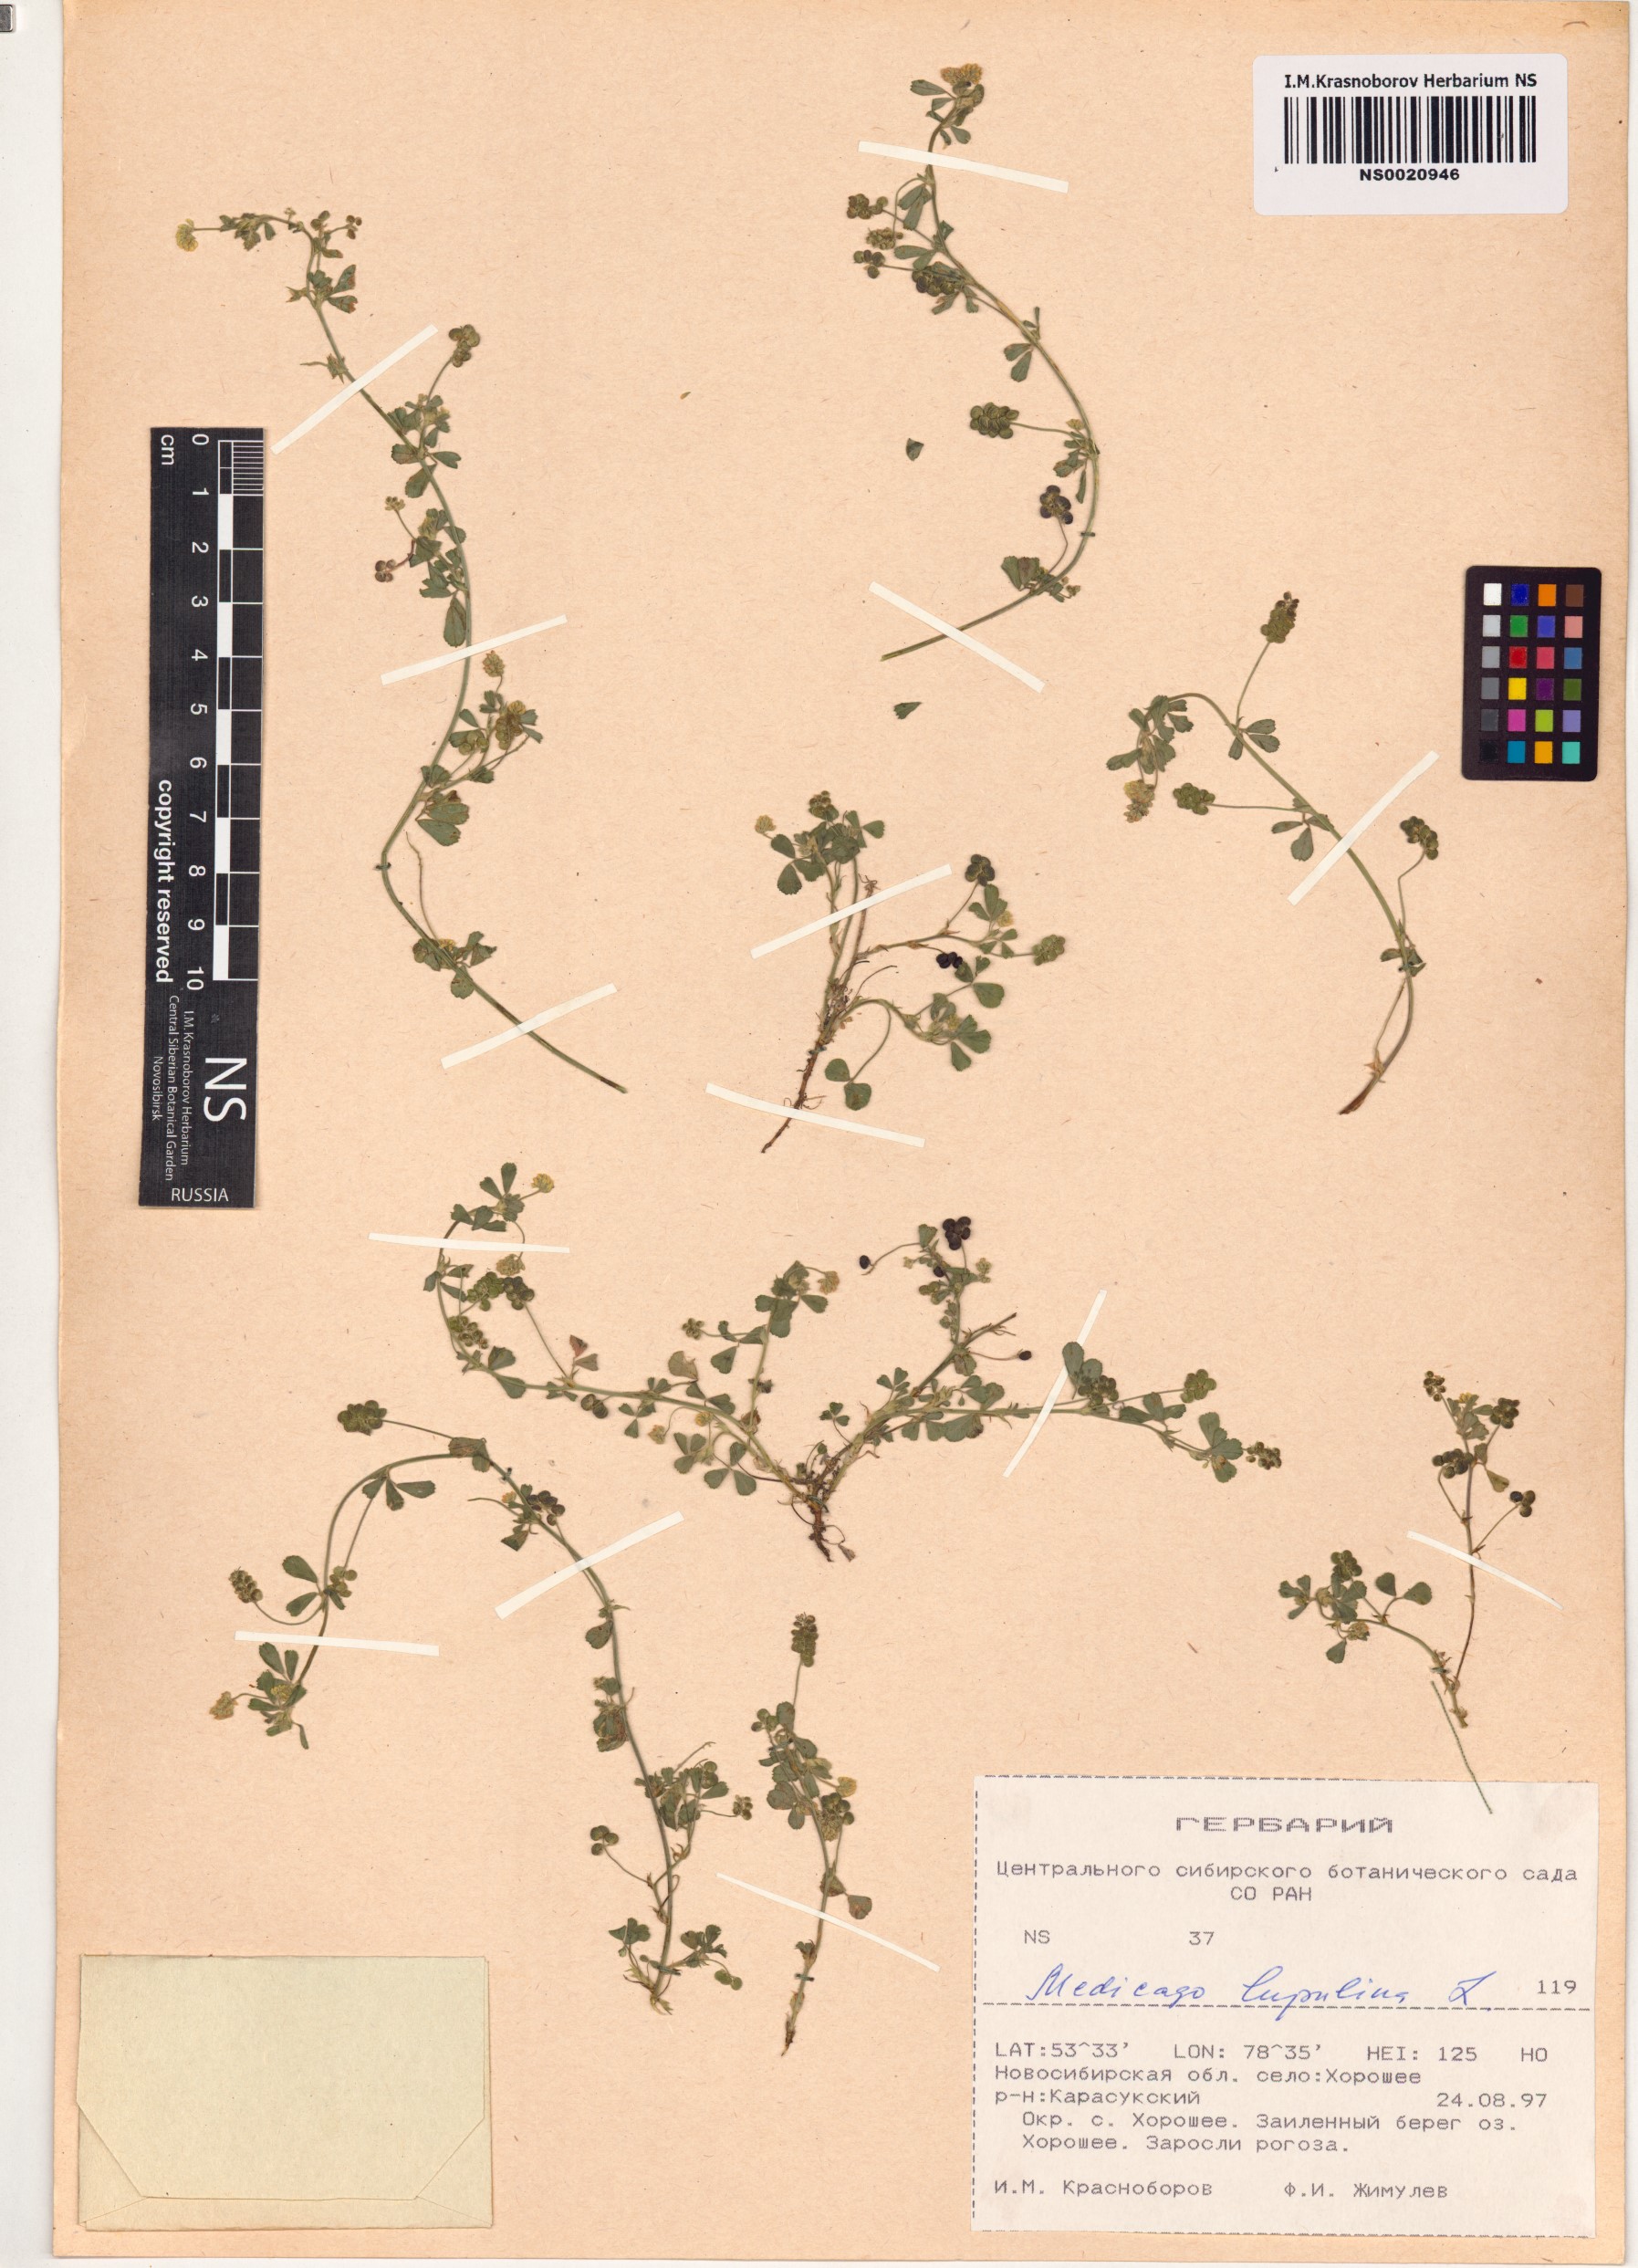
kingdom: Plantae
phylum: Tracheophyta
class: Magnoliopsida
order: Fabales
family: Fabaceae
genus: Medicago
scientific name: Medicago lupulina
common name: Black medick
